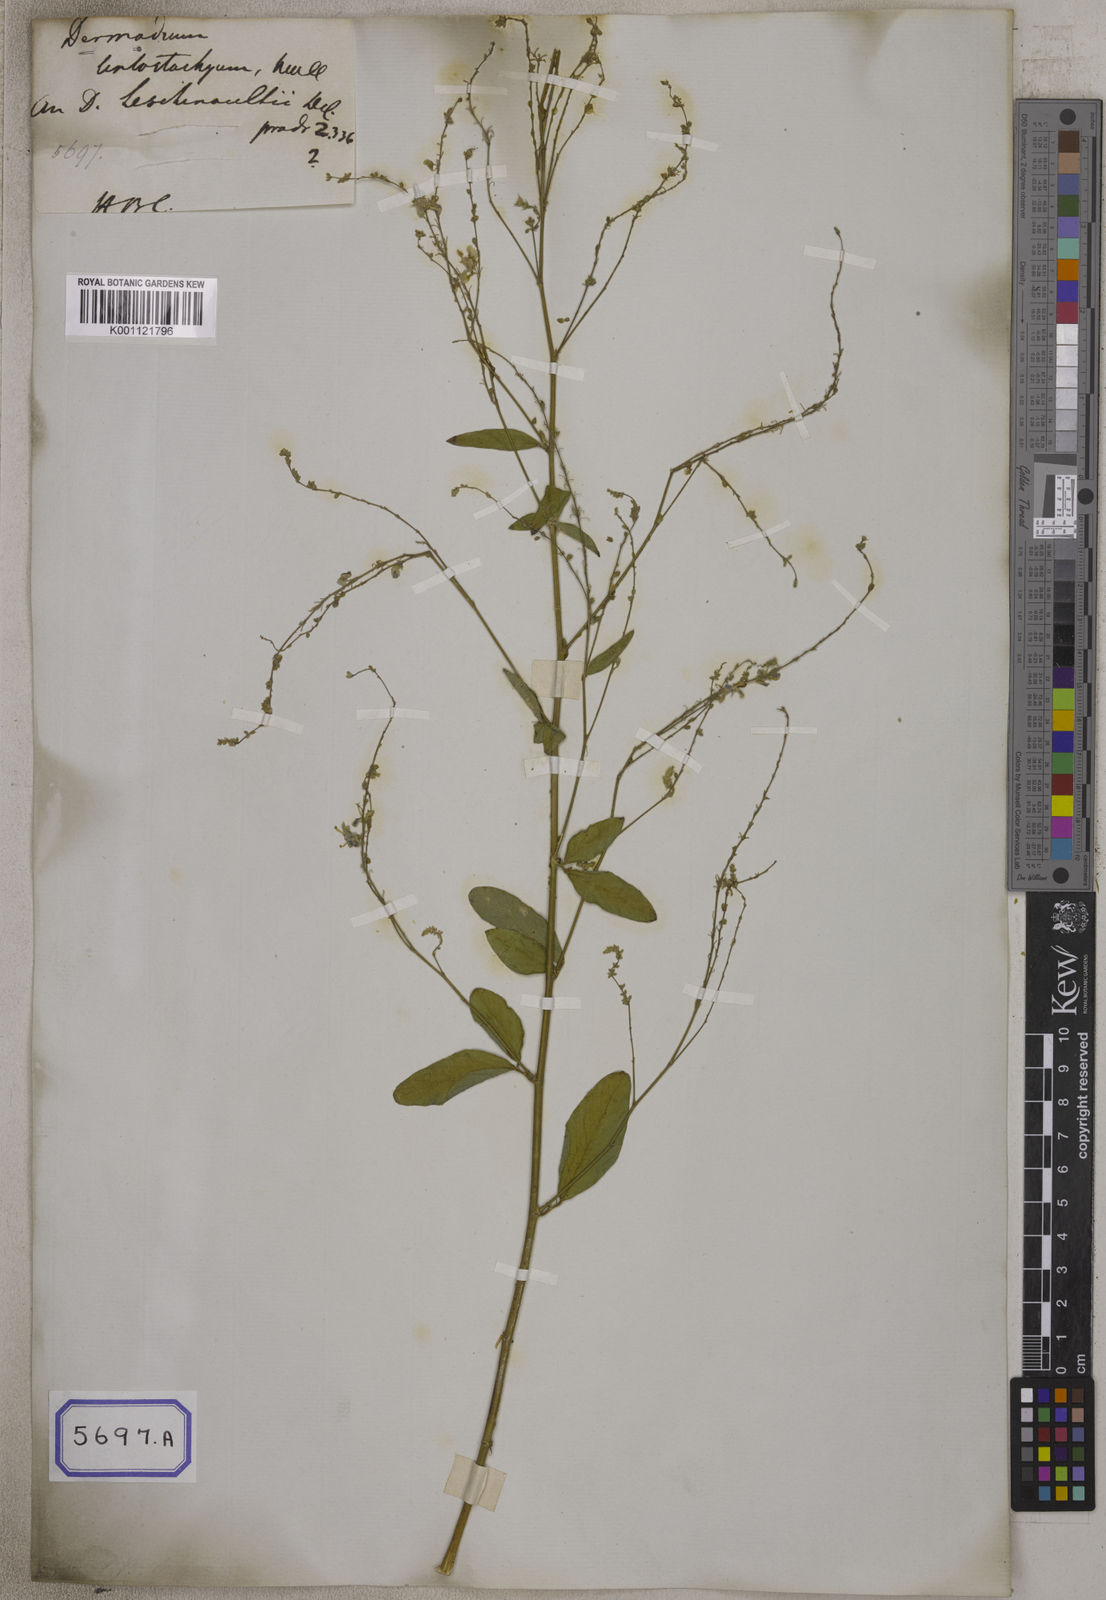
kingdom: Plantae
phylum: Tracheophyta
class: Magnoliopsida
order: Fabales
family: Fabaceae
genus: Desmodium
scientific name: Desmodium
